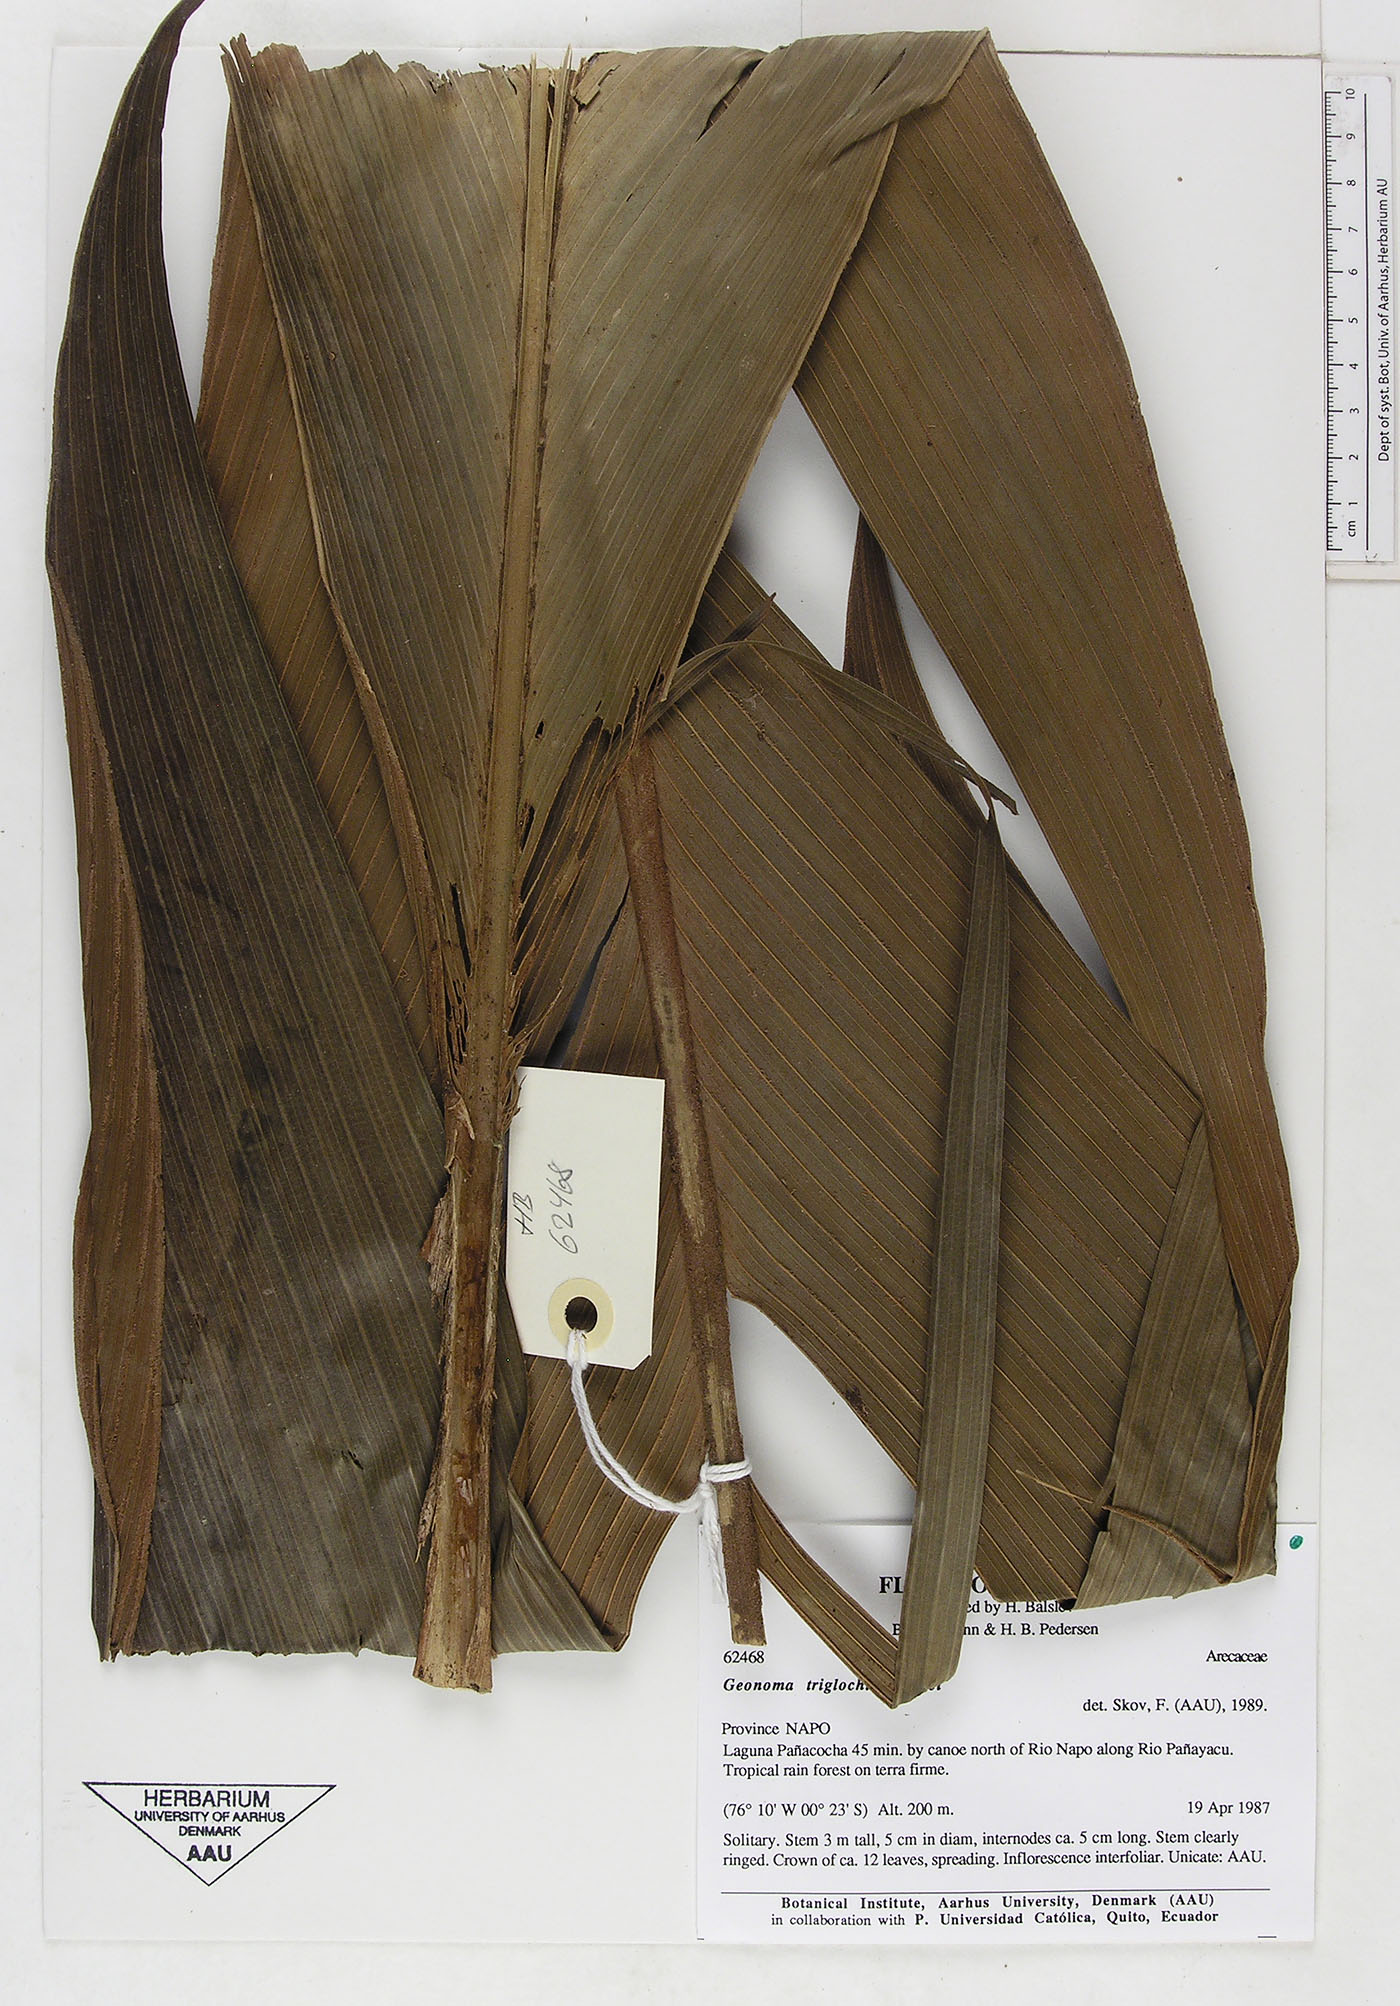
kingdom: Plantae
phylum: Tracheophyta
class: Liliopsida
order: Arecales
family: Arecaceae
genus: Geonoma
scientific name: Geonoma triglochin
